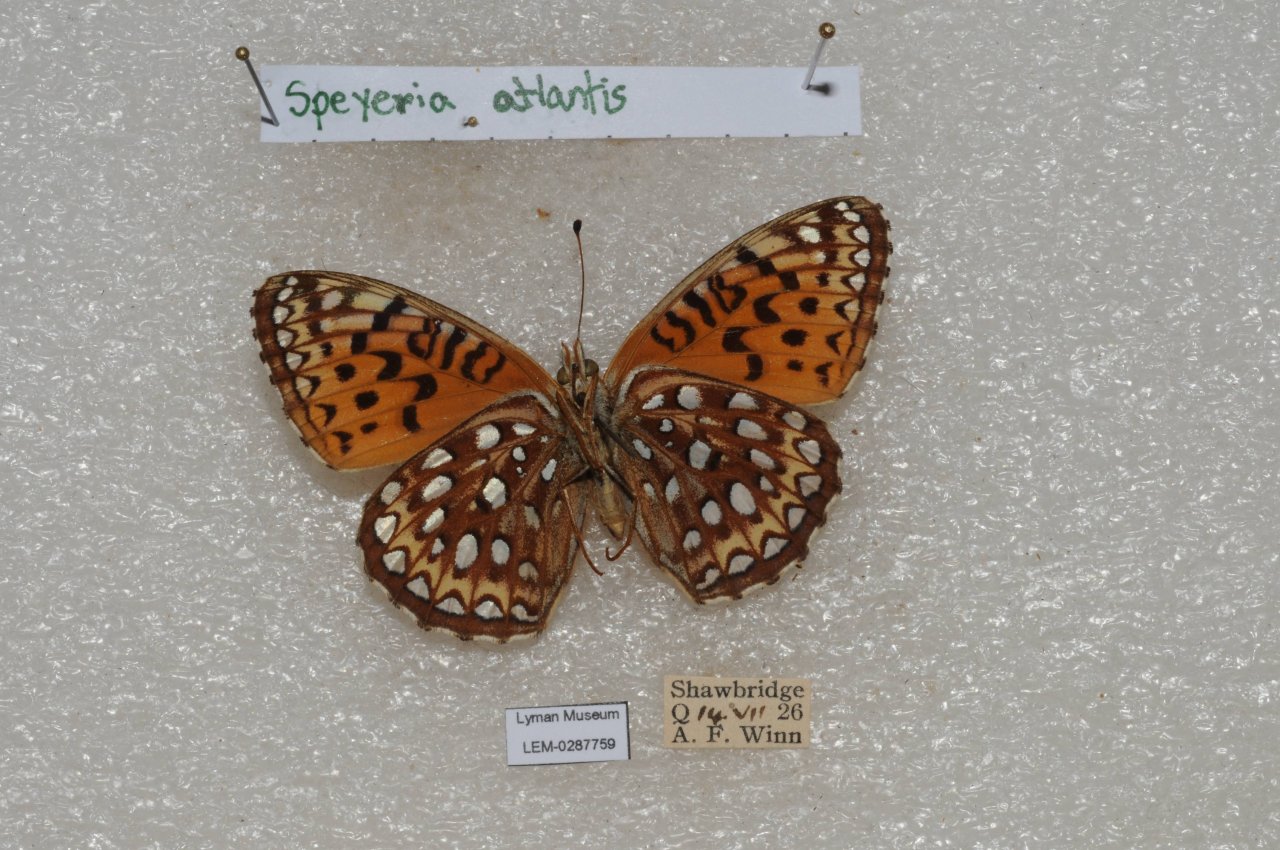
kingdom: Animalia
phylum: Arthropoda
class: Insecta
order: Lepidoptera
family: Nymphalidae
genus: Speyeria
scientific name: Speyeria atlantis
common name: Atlantis Fritillary
